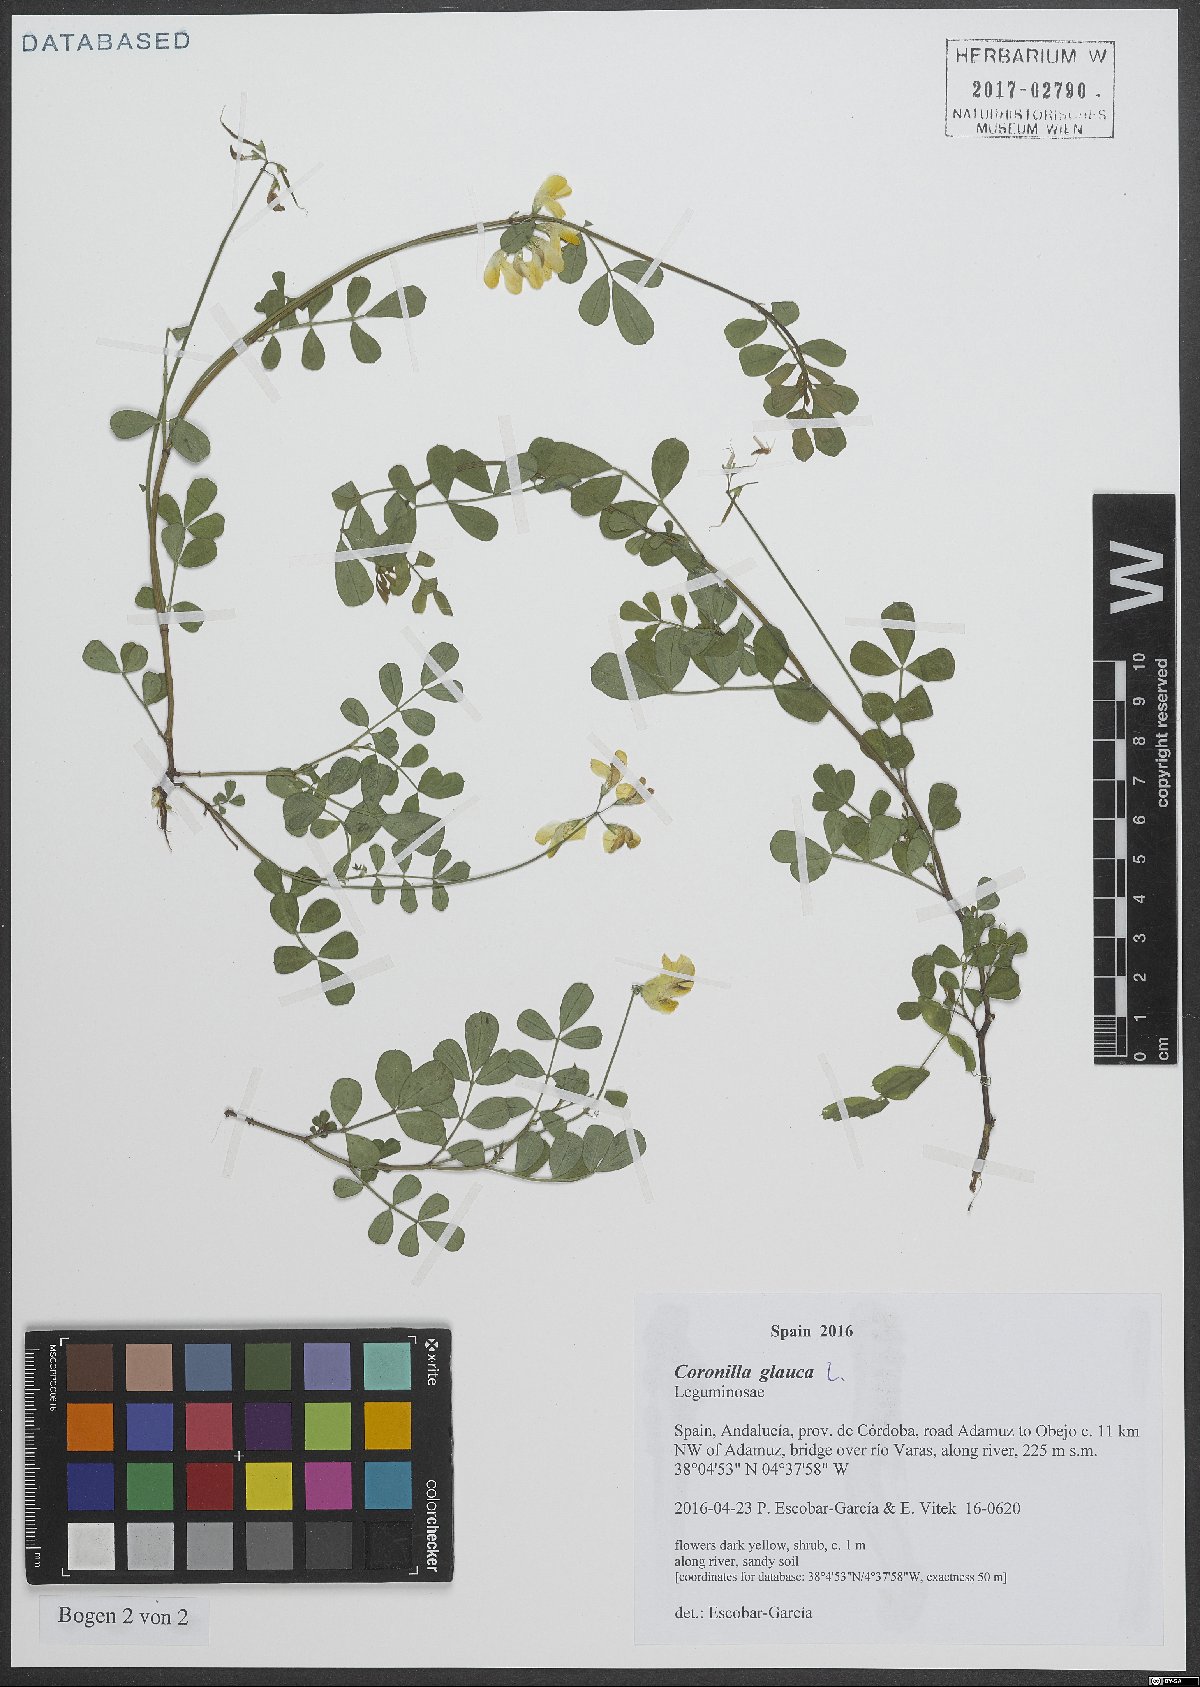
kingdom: Plantae
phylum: Tracheophyta
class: Magnoliopsida
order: Fabales
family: Fabaceae
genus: Coronilla
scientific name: Coronilla valentina
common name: Shrubby scorpion-vetch
